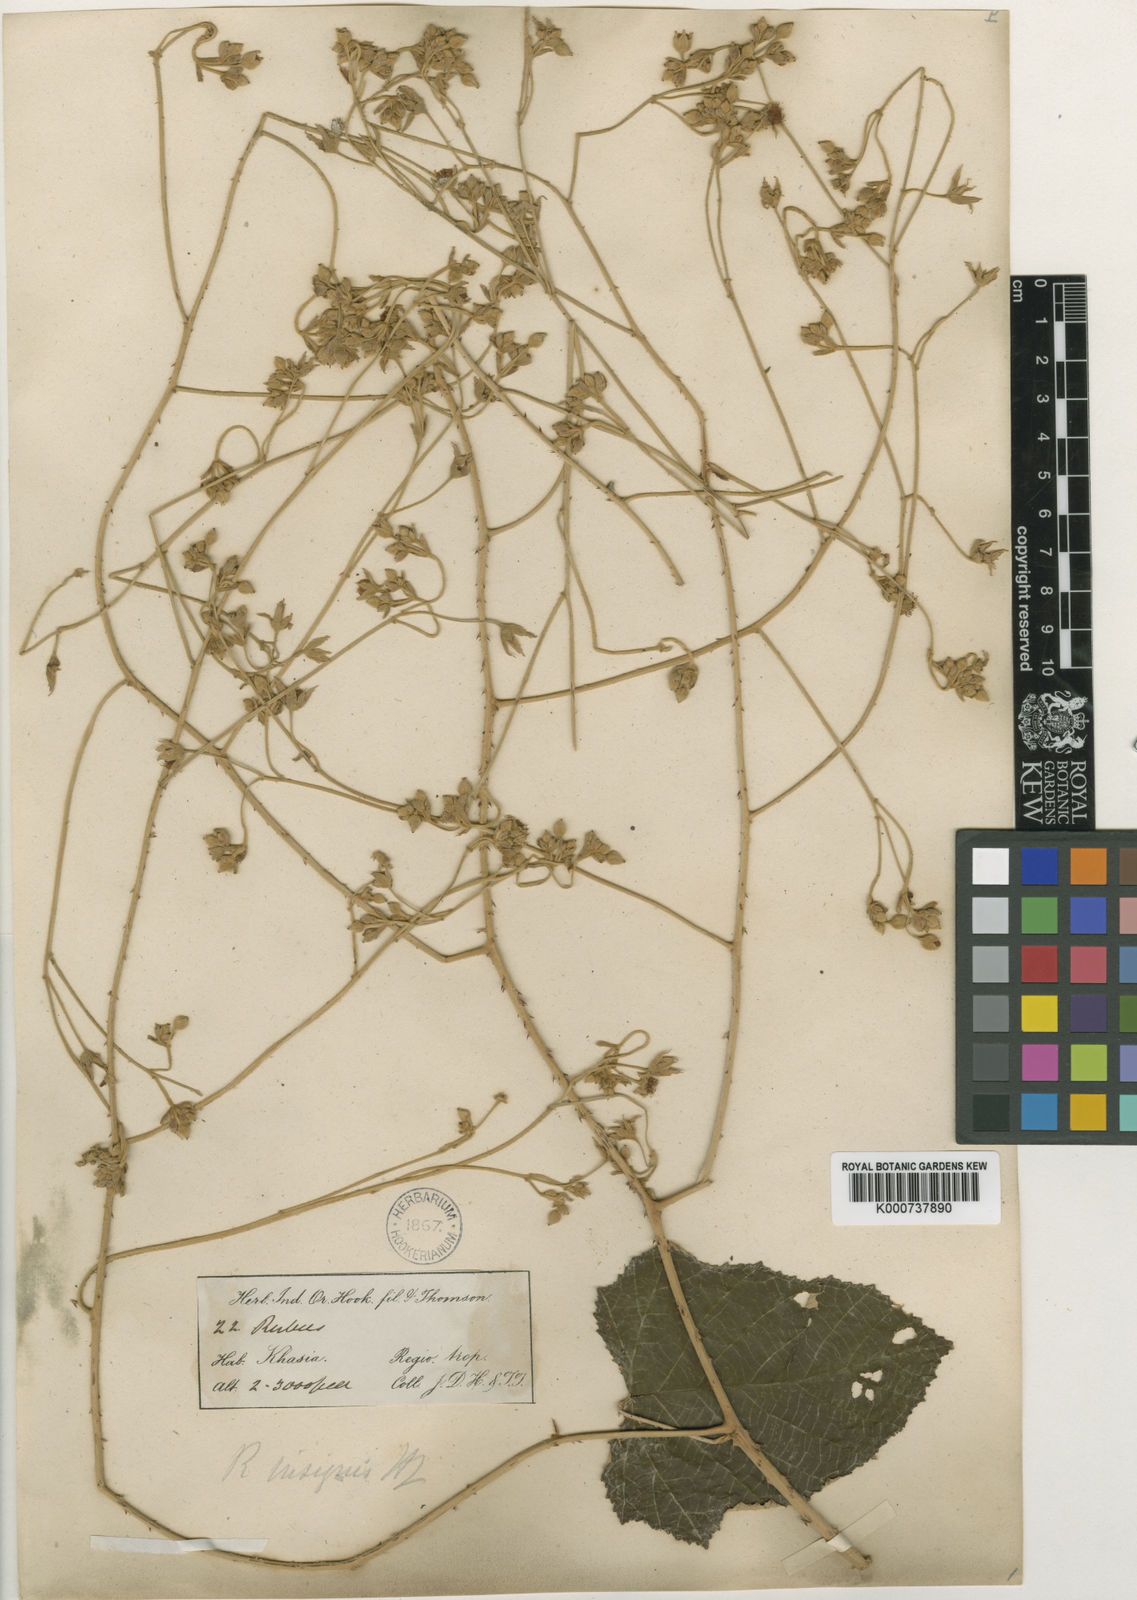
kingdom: Plantae
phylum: Tracheophyta
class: Magnoliopsida
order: Rosales
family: Rosaceae
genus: Rubus
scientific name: Rubus insignis
